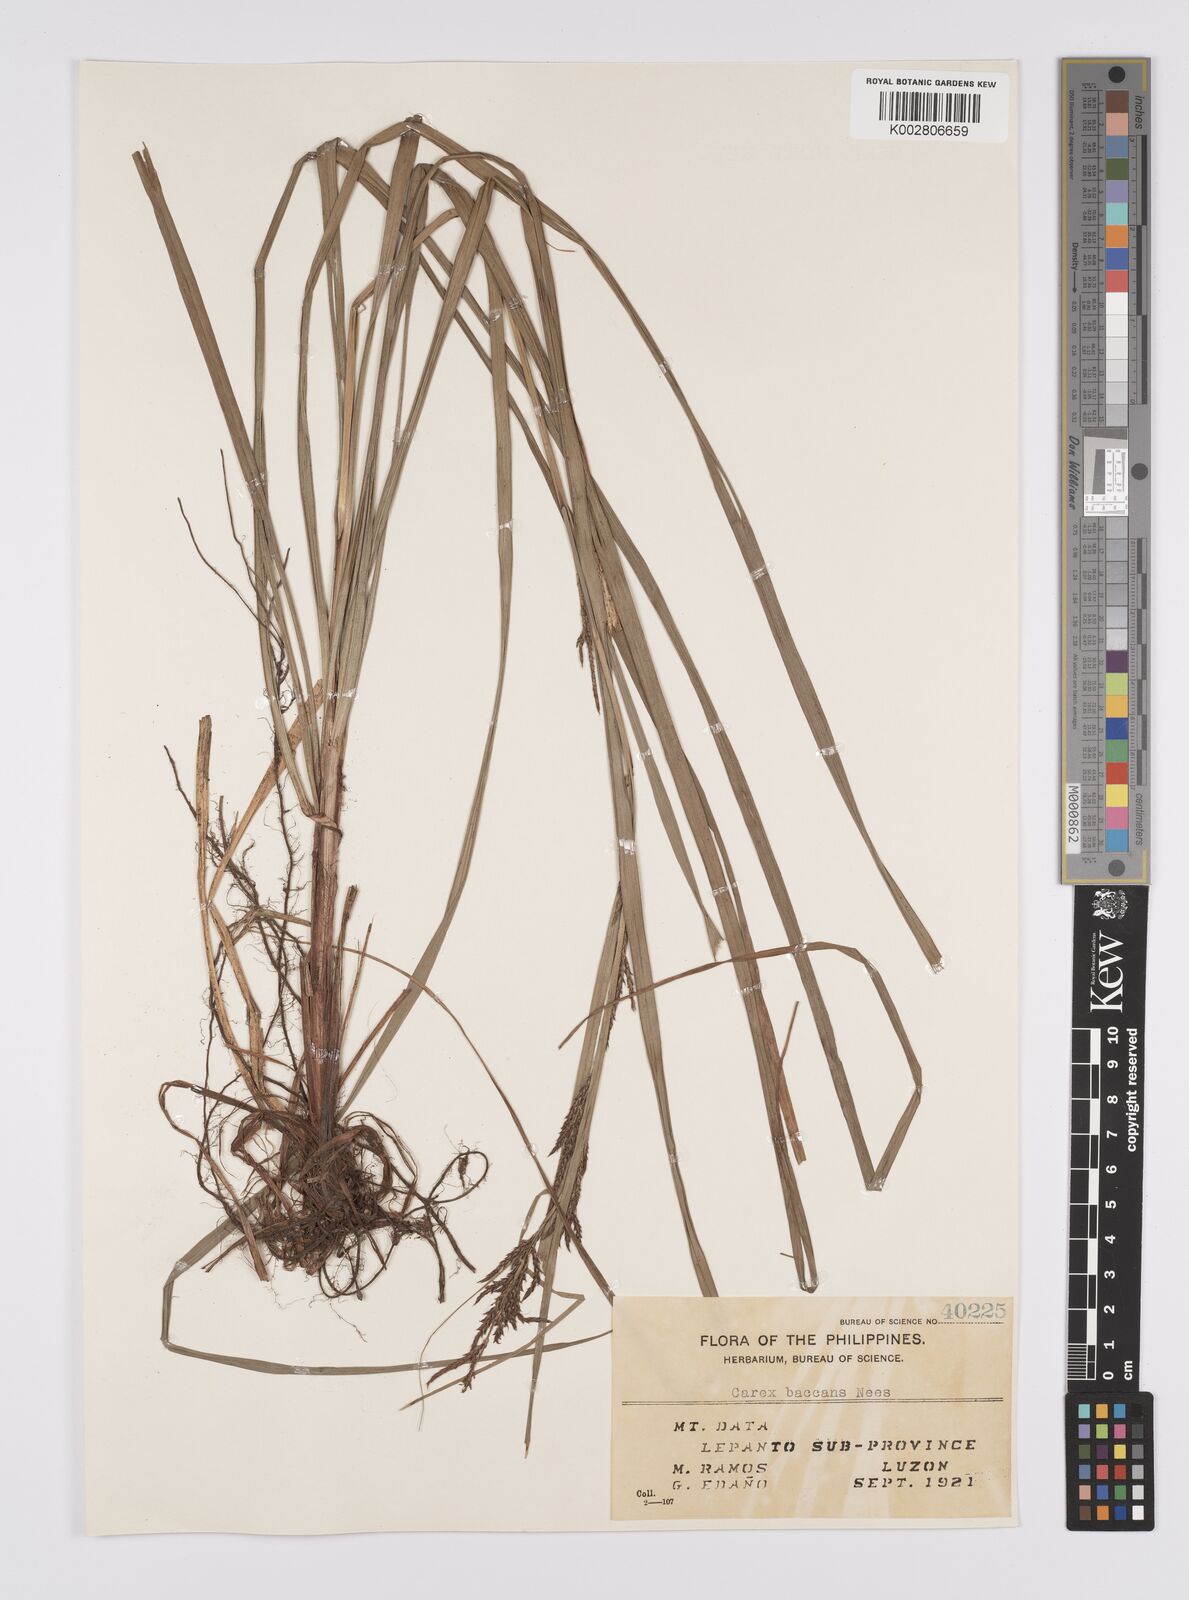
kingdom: Plantae
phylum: Tracheophyta
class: Liliopsida
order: Poales
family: Cyperaceae
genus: Carex
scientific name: Carex baccans
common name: Crimson seeded sedge
